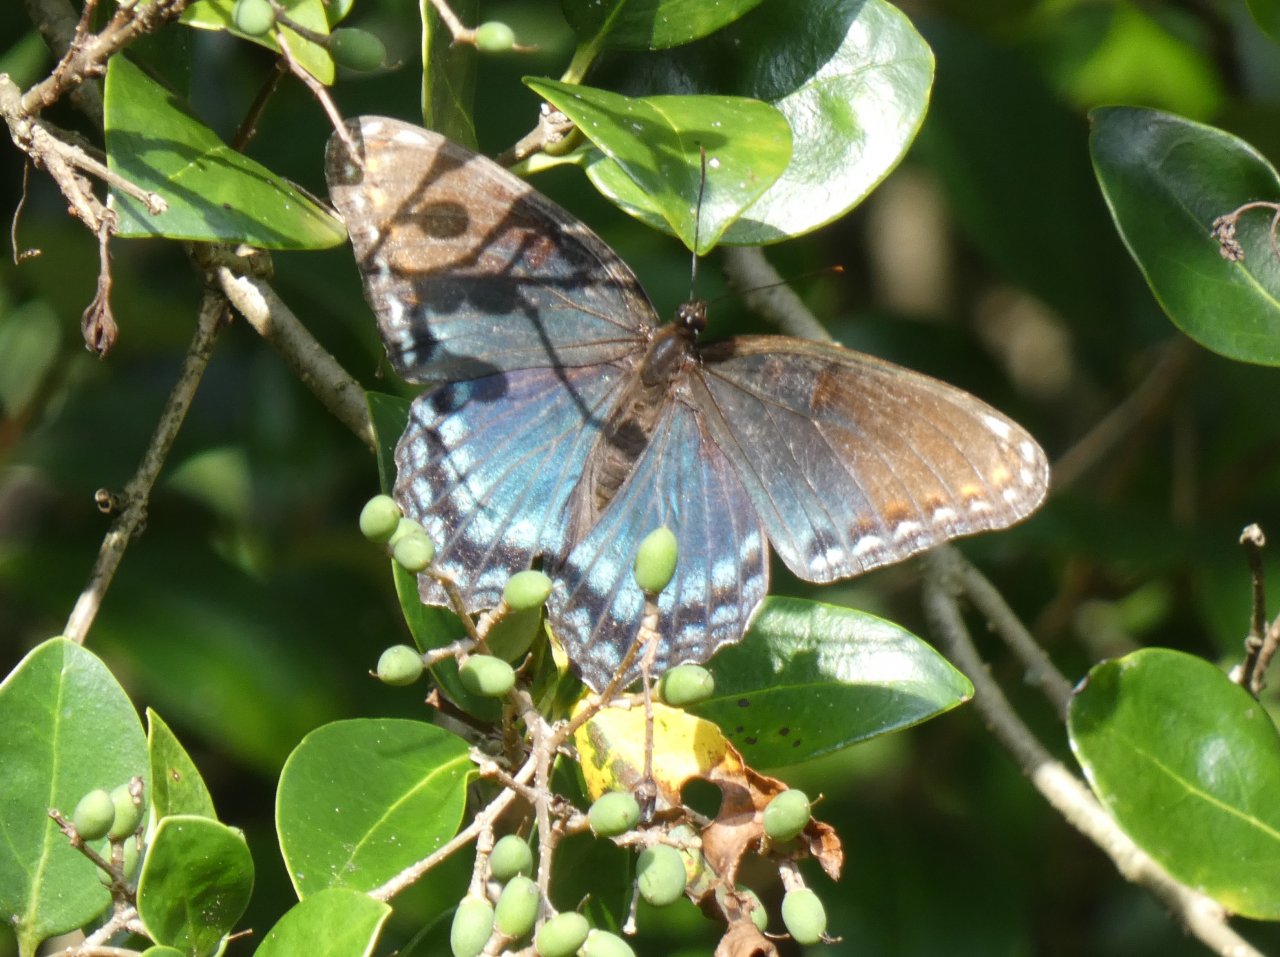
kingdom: Animalia
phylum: Arthropoda
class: Insecta
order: Lepidoptera
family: Nymphalidae
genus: Limenitis
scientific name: Limenitis astyanax
